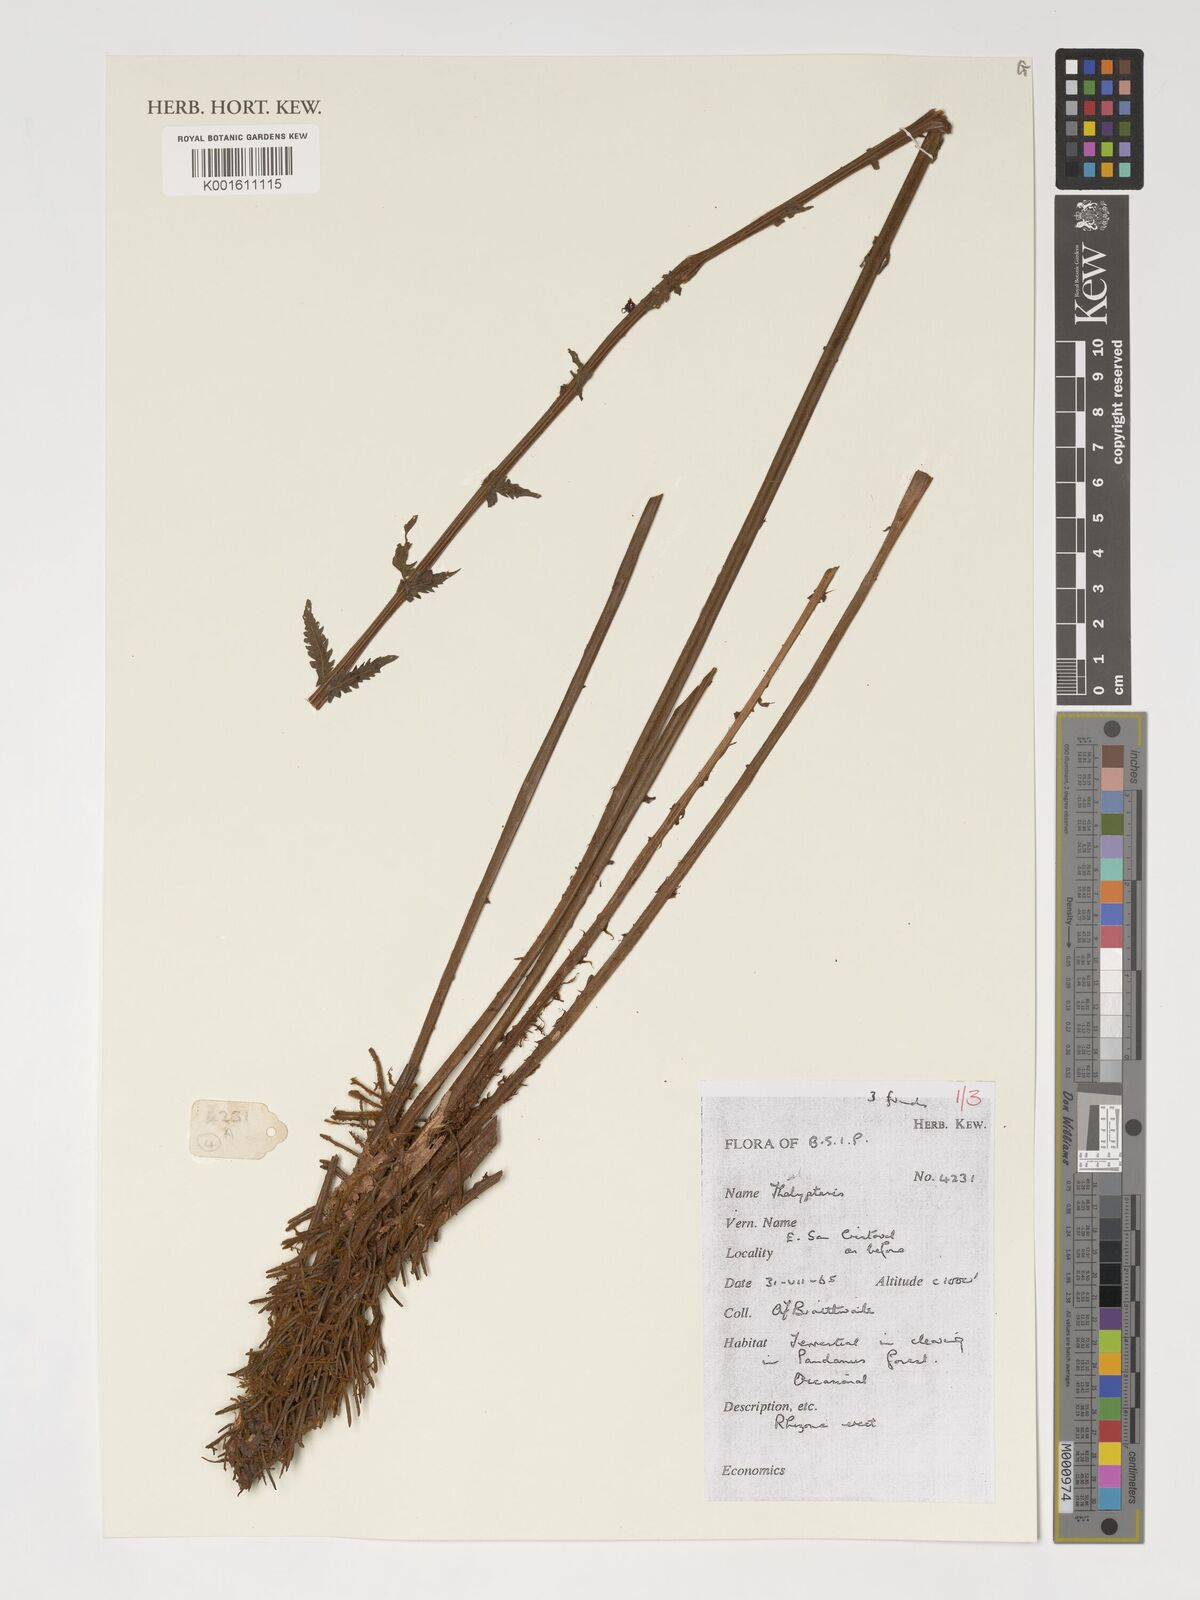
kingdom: Plantae
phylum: Tracheophyta
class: Polypodiopsida
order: Polypodiales
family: Thelypteridaceae
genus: Thelypteris
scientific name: Thelypteris
